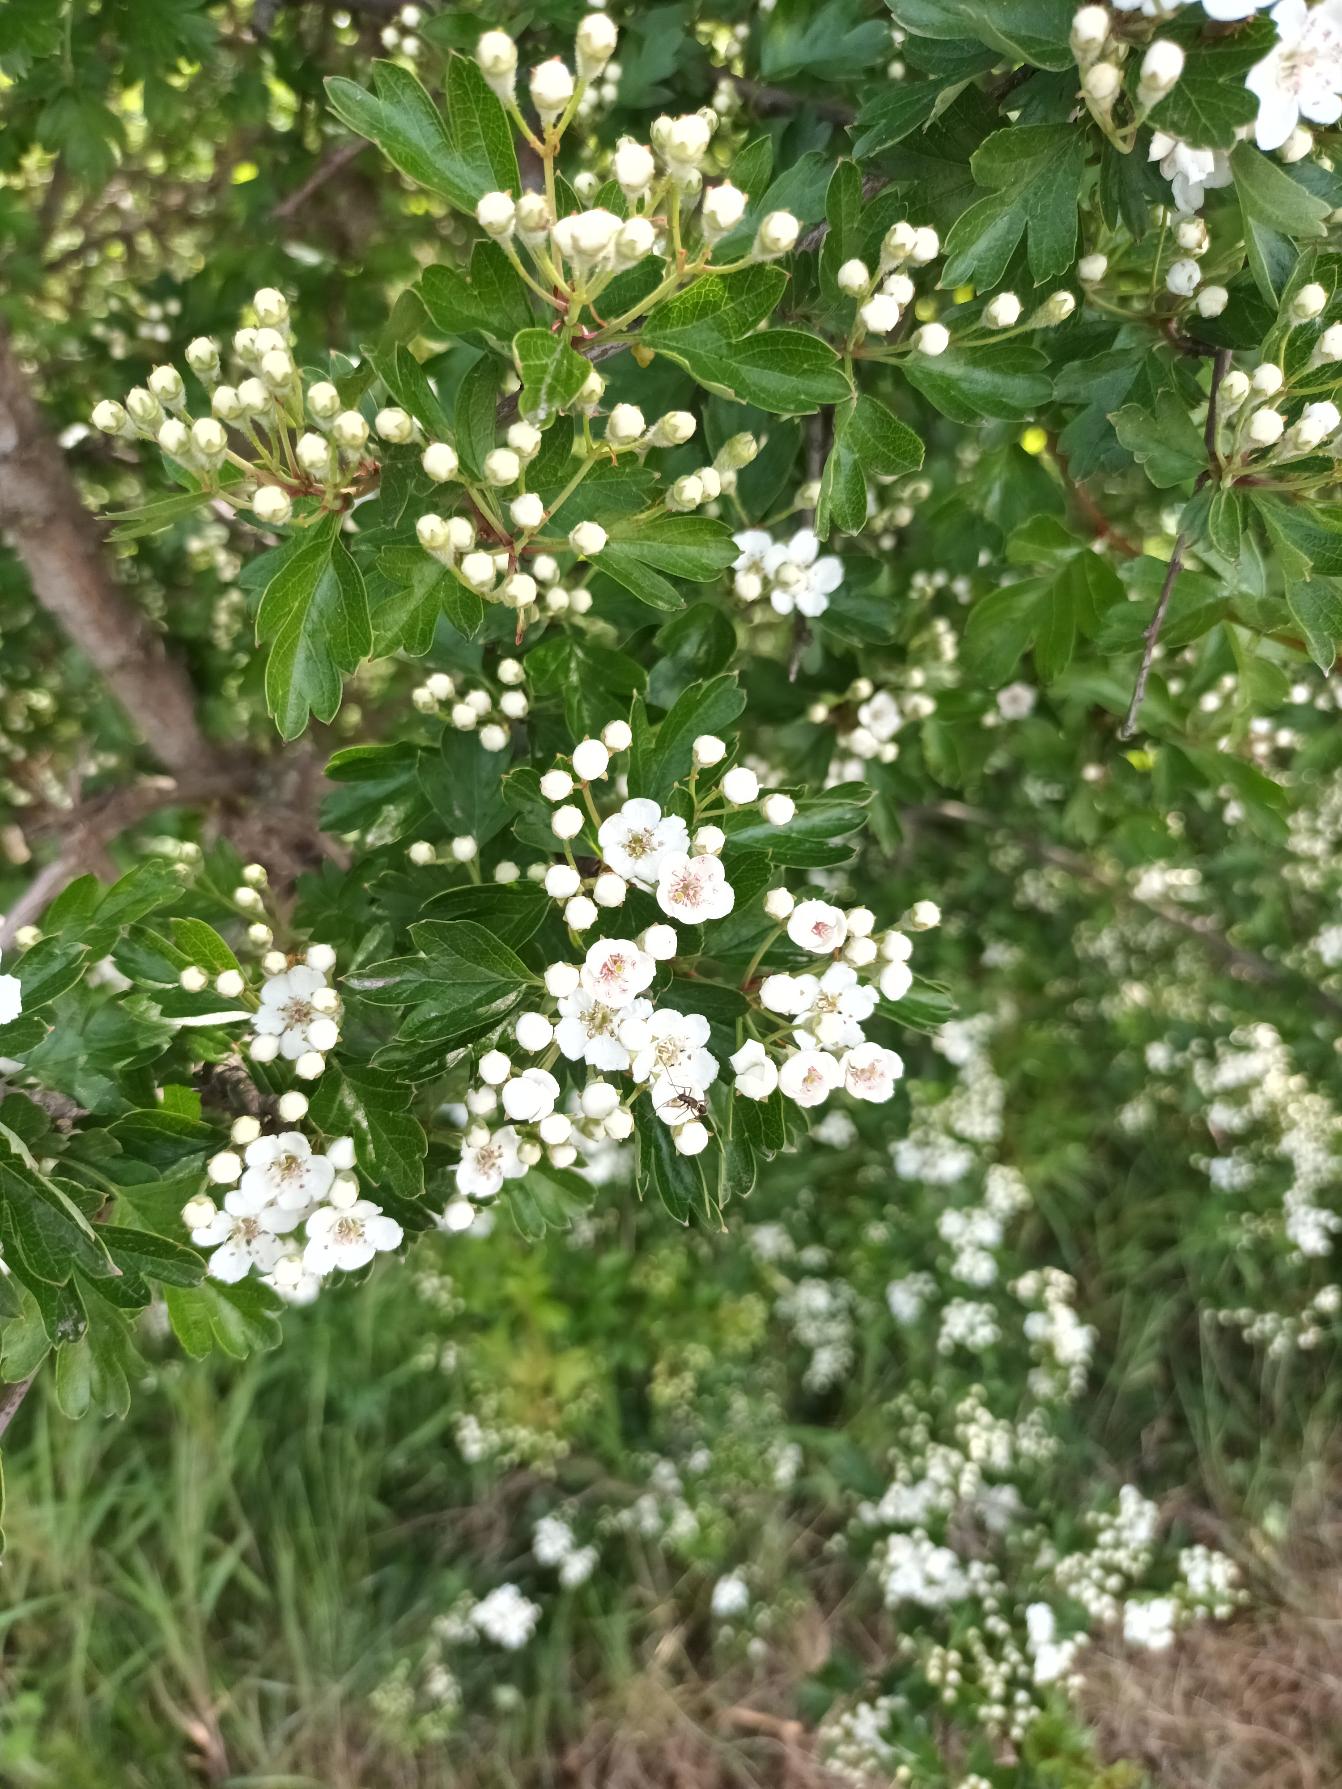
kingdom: Plantae
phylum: Tracheophyta
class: Magnoliopsida
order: Rosales
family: Rosaceae
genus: Crataegus
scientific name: Crataegus monogyna
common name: Engriflet hvidtjørn
